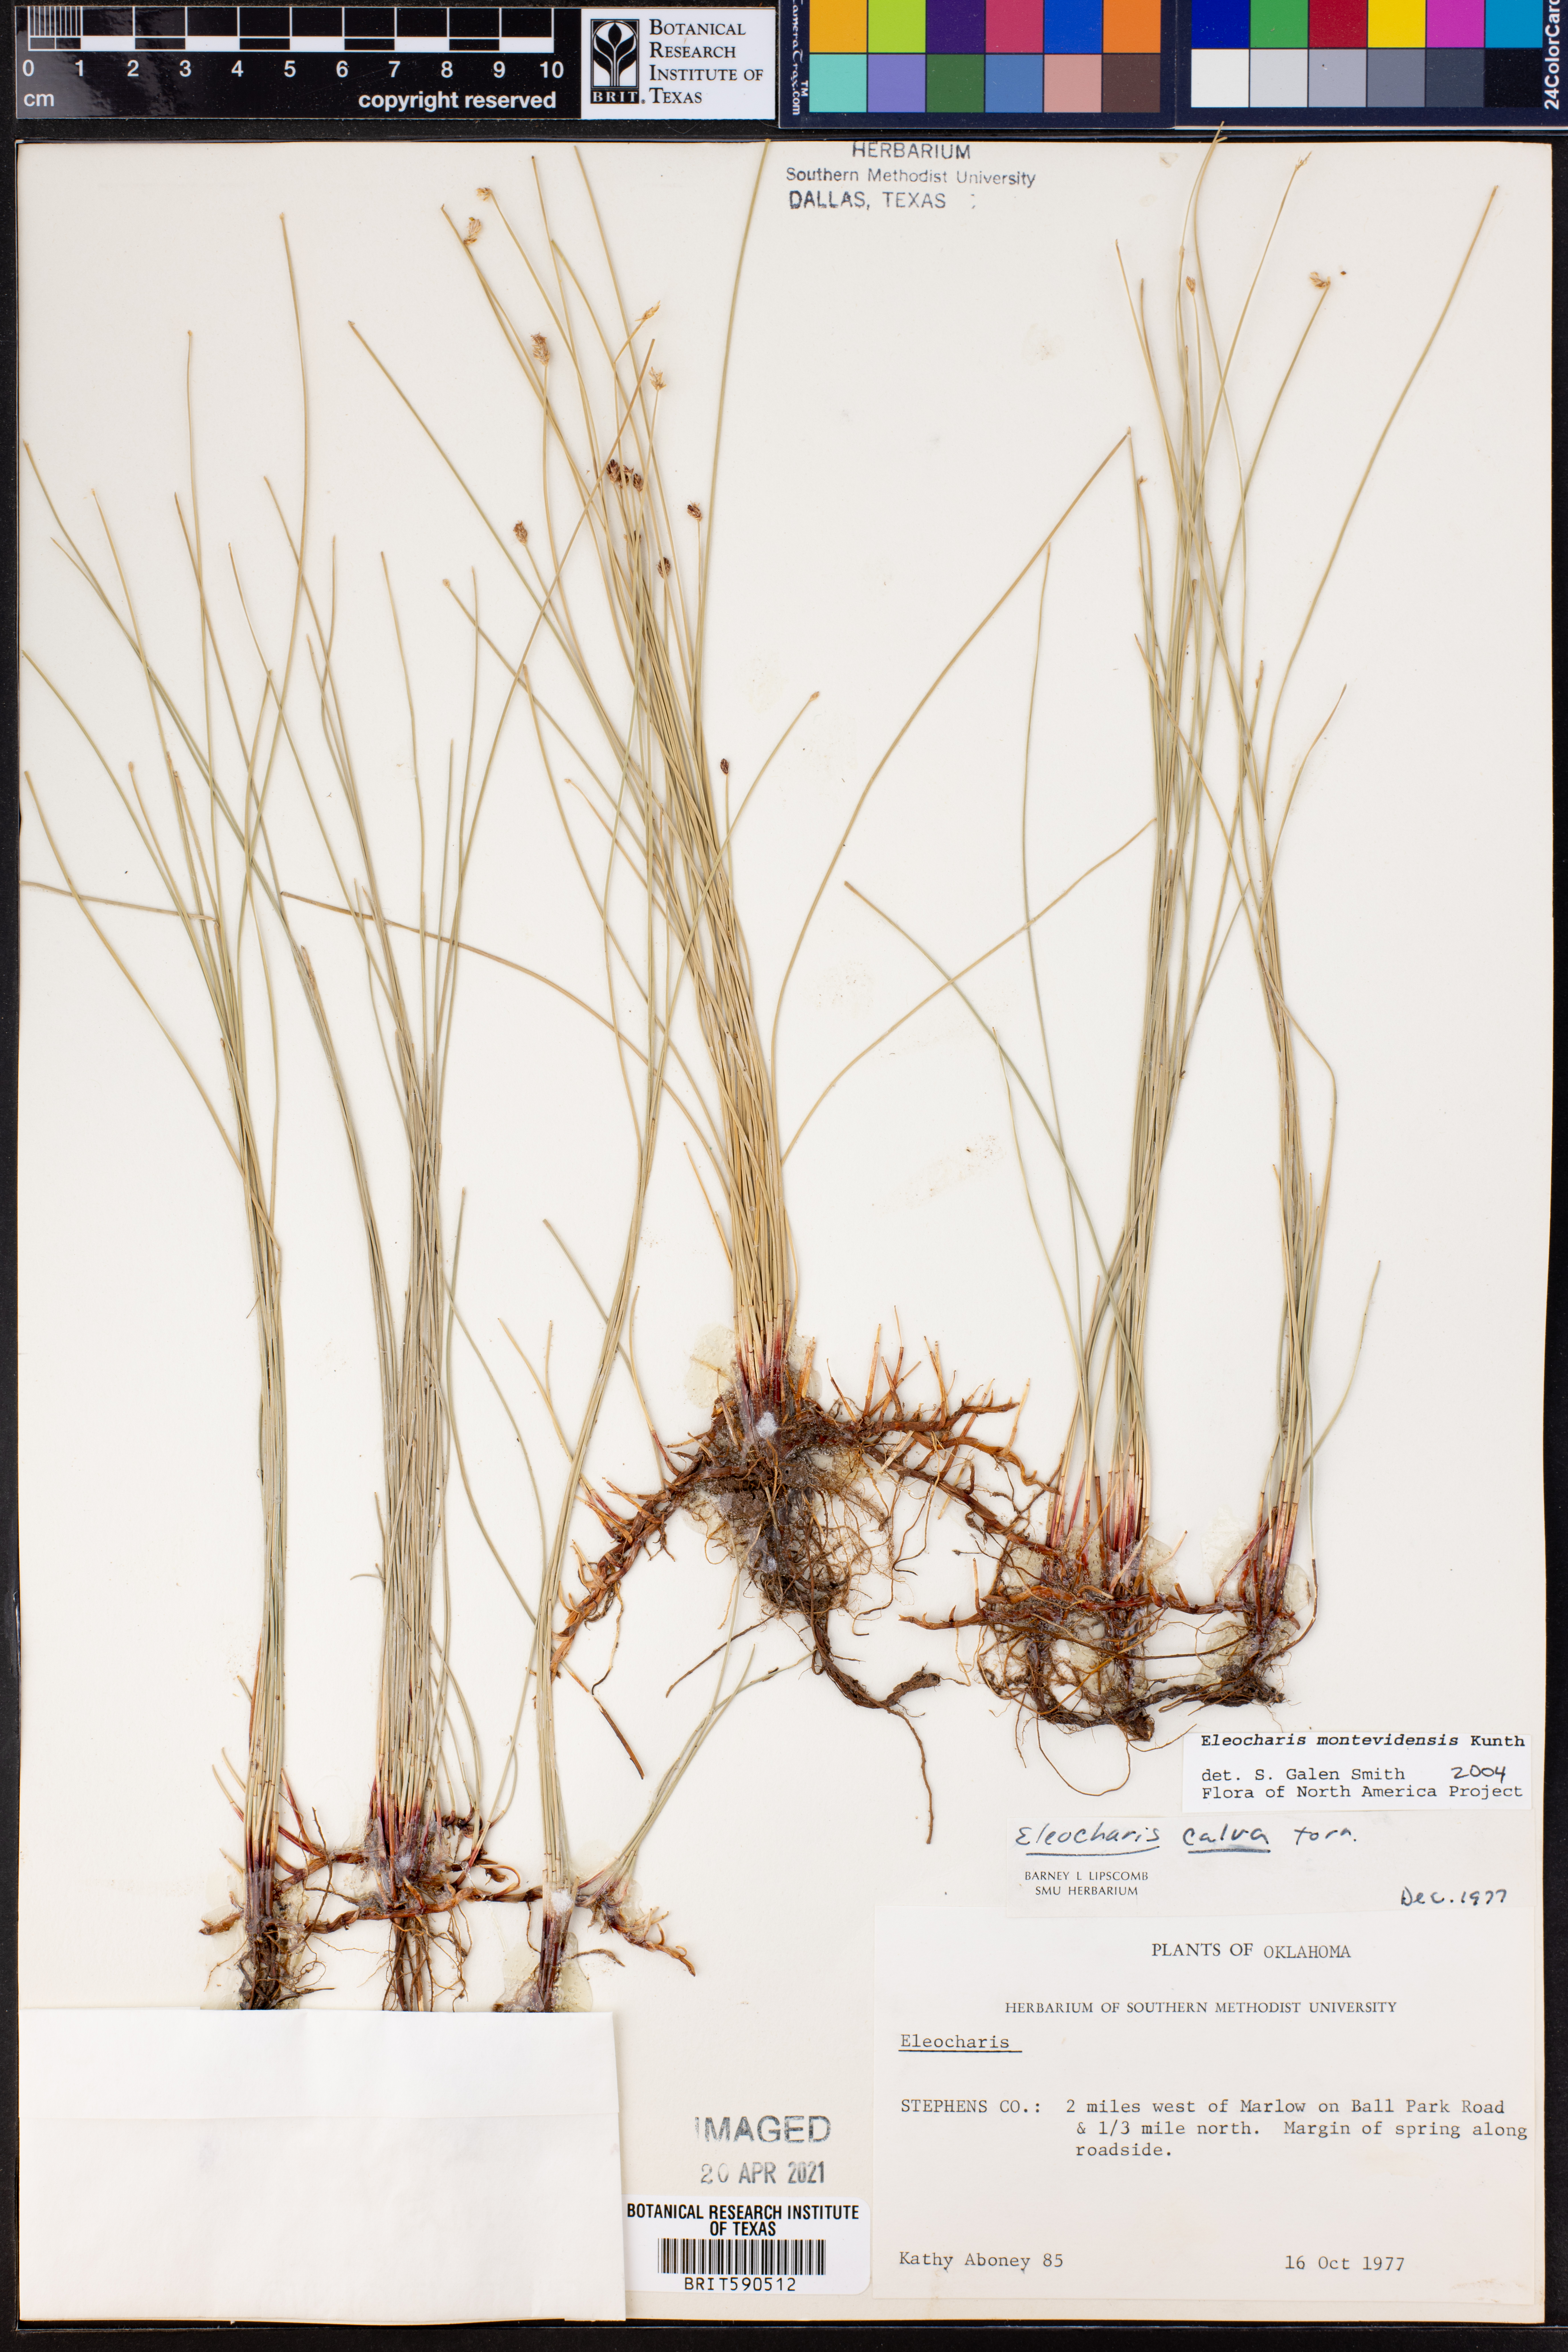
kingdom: Plantae
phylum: Tracheophyta
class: Liliopsida
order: Poales
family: Cyperaceae
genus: Eleocharis
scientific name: Eleocharis montevidensis
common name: Sand spike-rush
